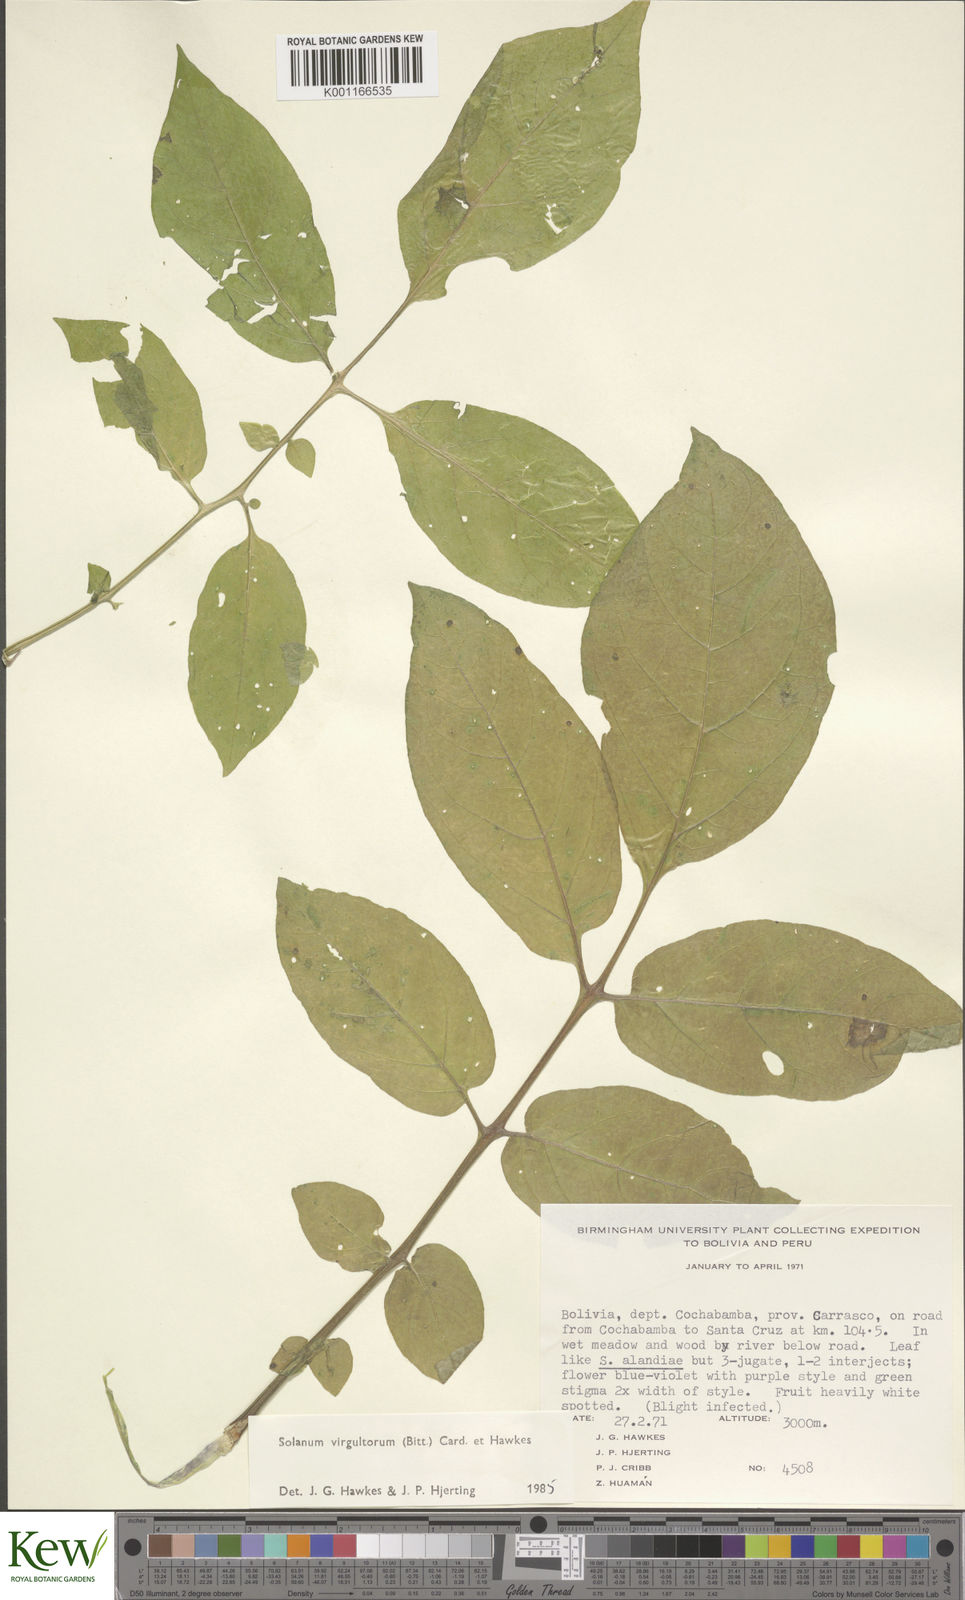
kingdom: Plantae
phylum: Tracheophyta
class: Magnoliopsida
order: Solanales
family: Solanaceae
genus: Solanum
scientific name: Solanum
